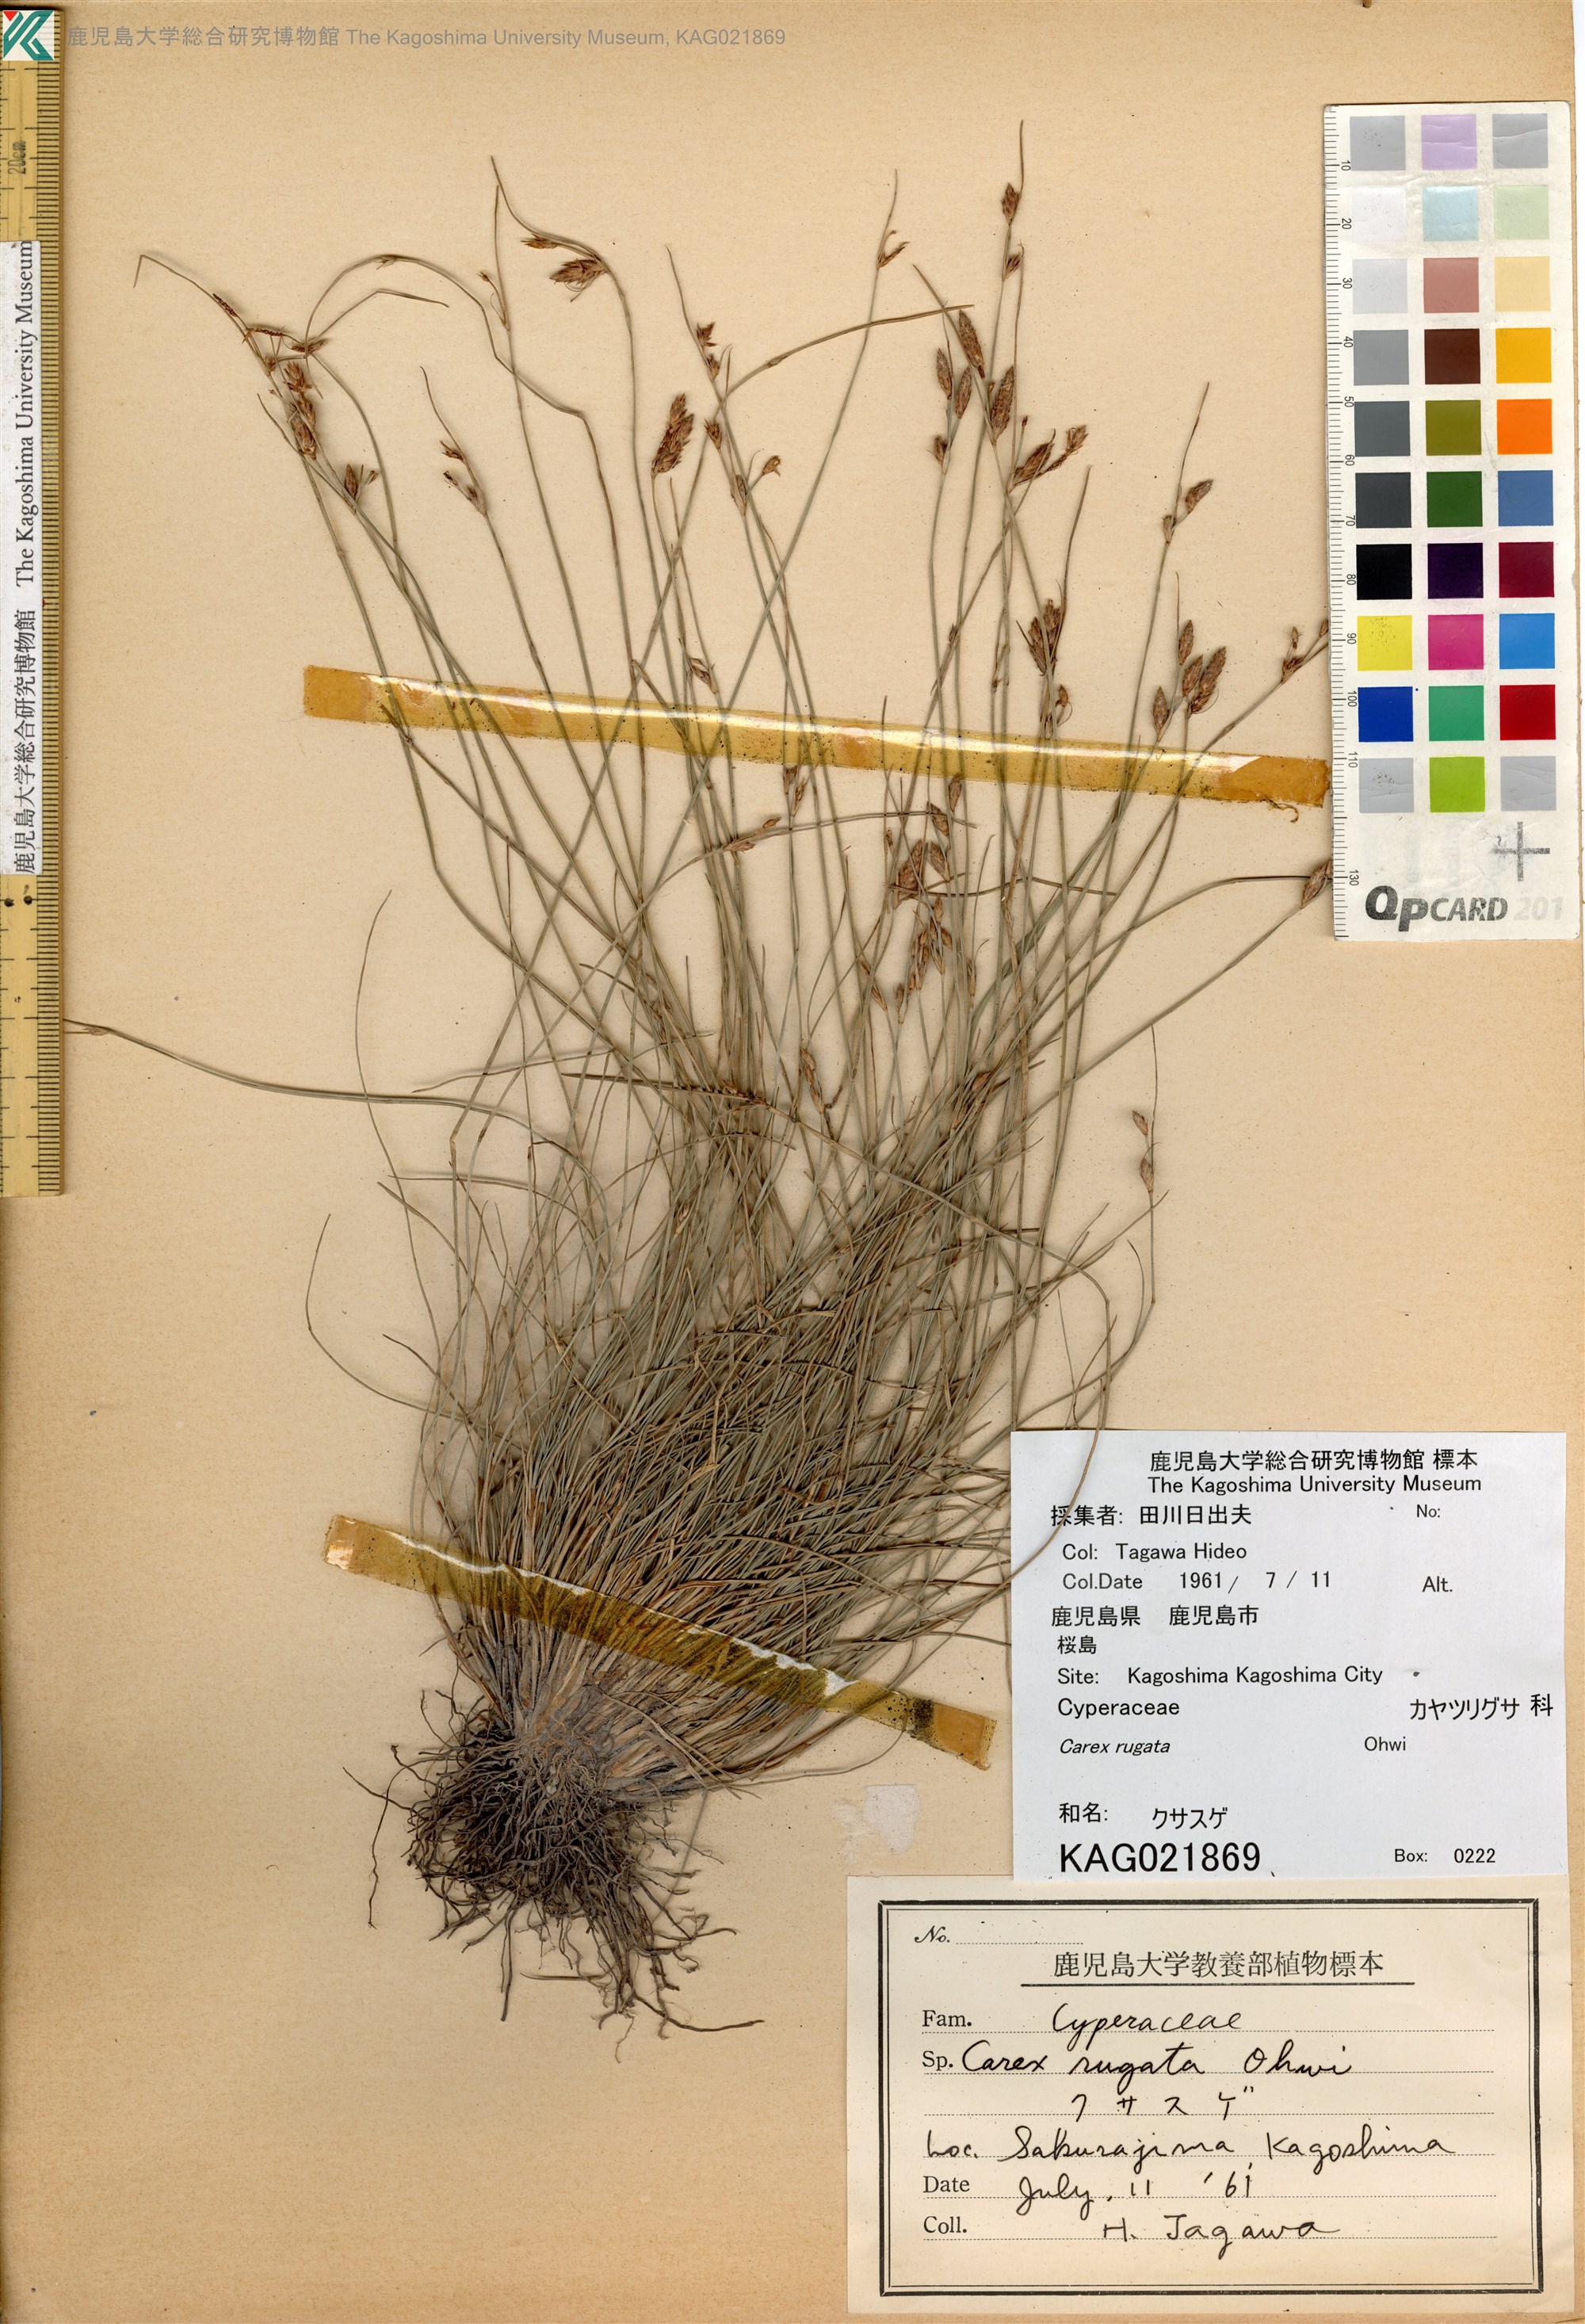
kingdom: Plantae
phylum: Tracheophyta
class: Liliopsida
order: Poales
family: Cyperaceae
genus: Carex
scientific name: Carex rugata
